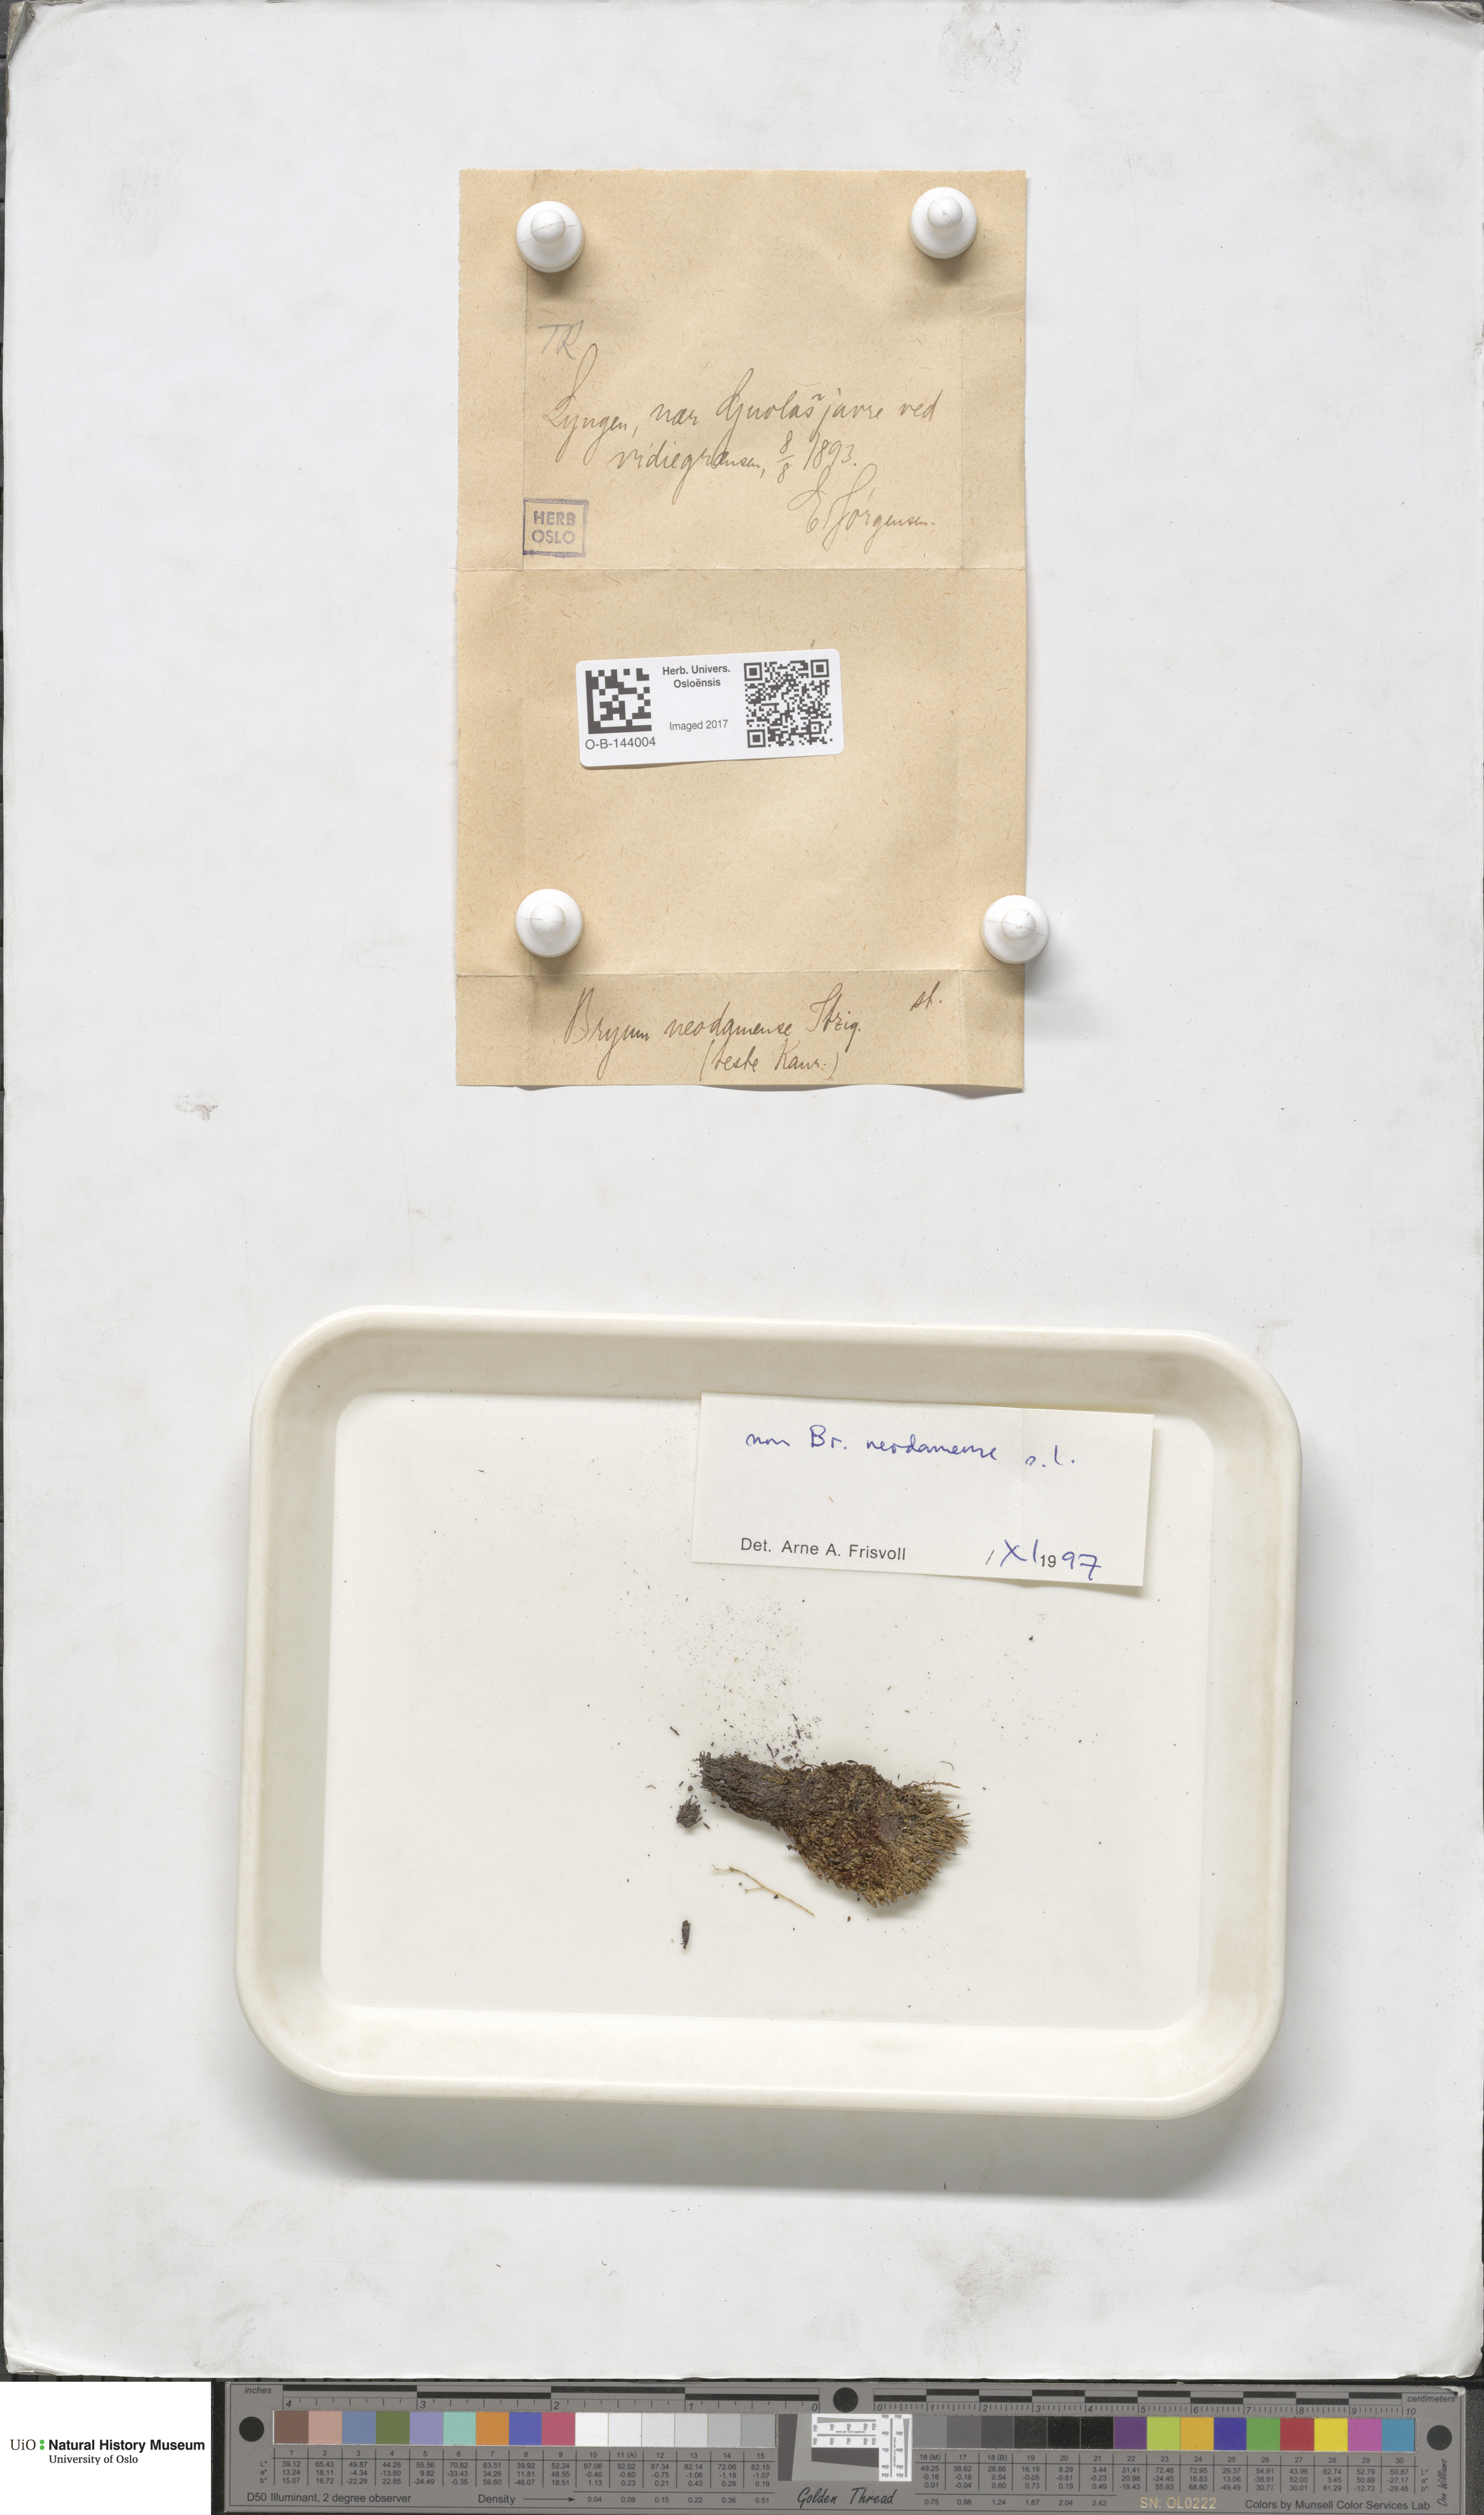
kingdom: Plantae
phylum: Bryophyta
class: Bryopsida
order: Bryales
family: Bryaceae
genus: Bryum
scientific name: Bryum
